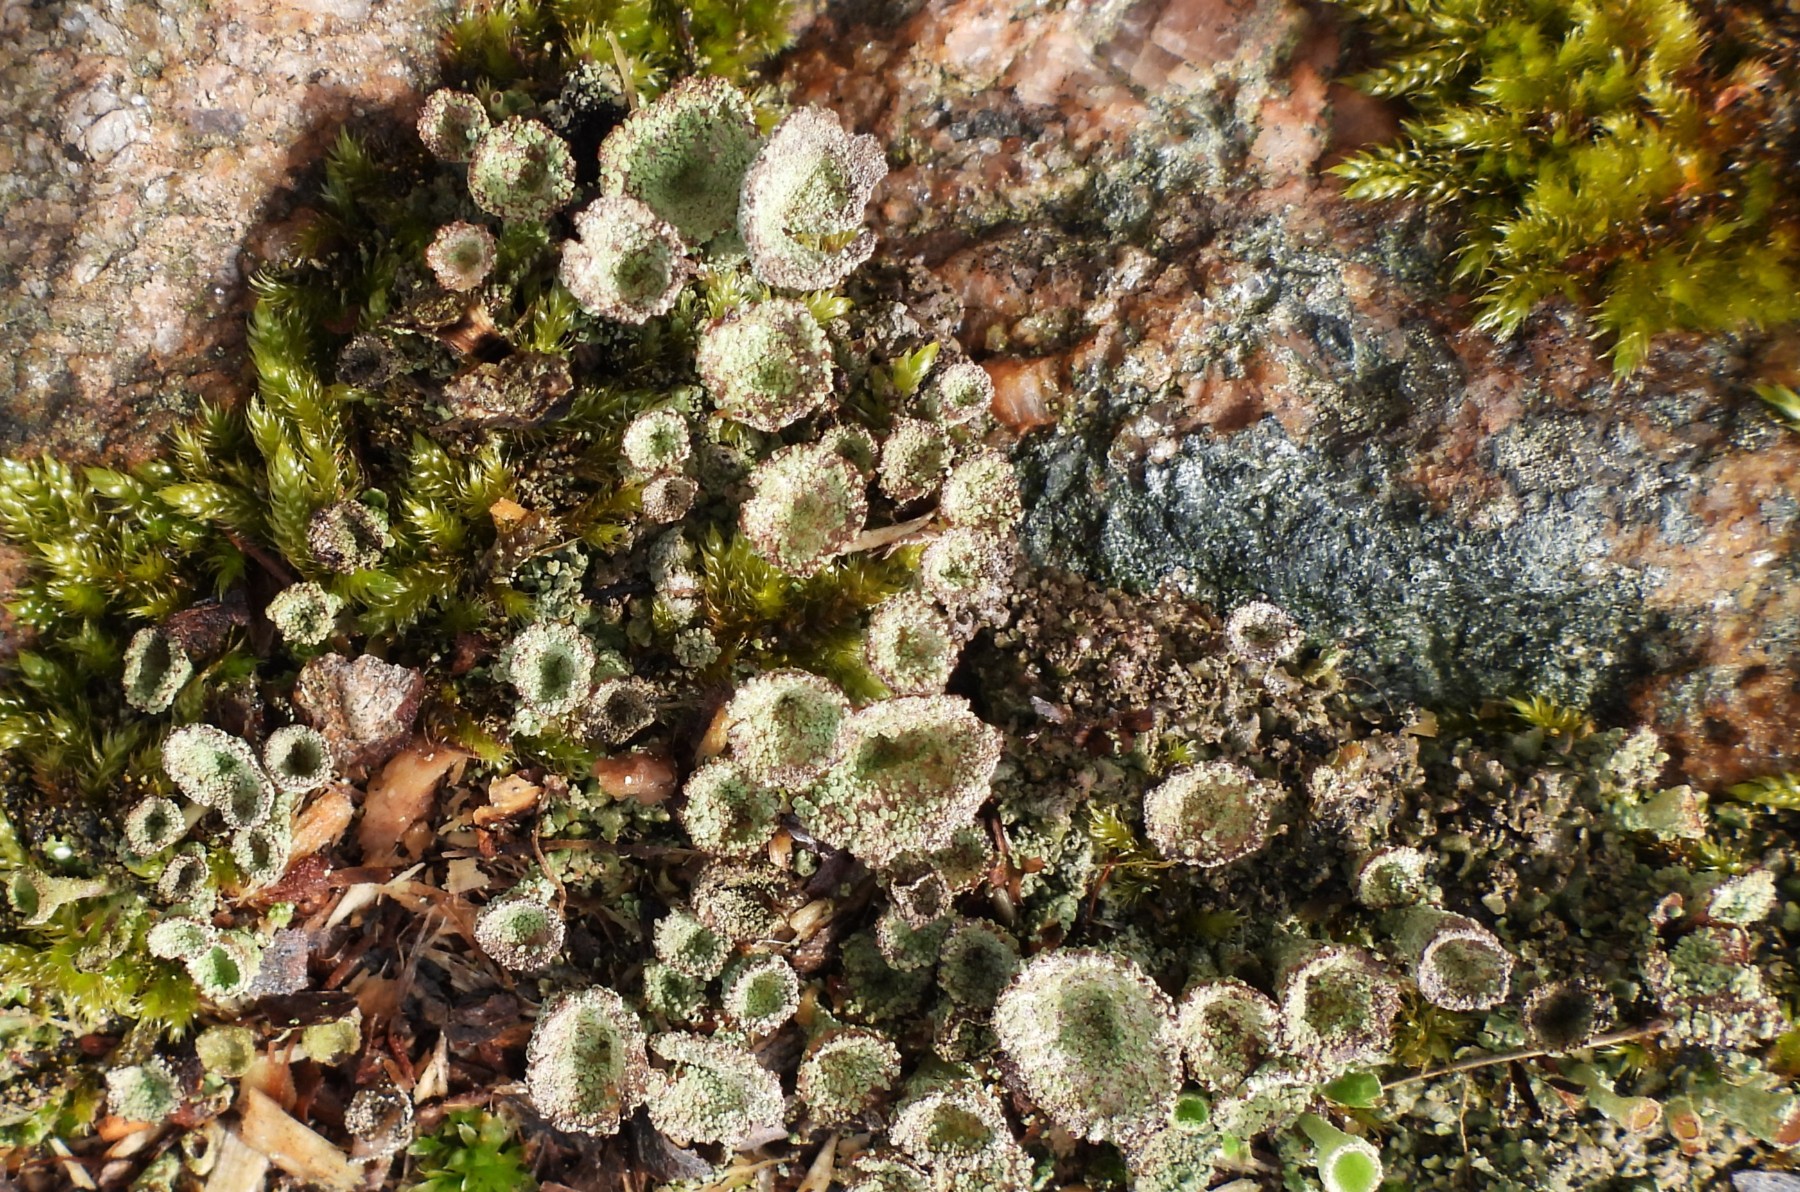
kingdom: Fungi
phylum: Ascomycota
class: Lecanoromycetes
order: Lecanorales
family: Cladoniaceae
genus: Cladonia
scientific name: Cladonia pyxidata
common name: tragt-bægerlav
